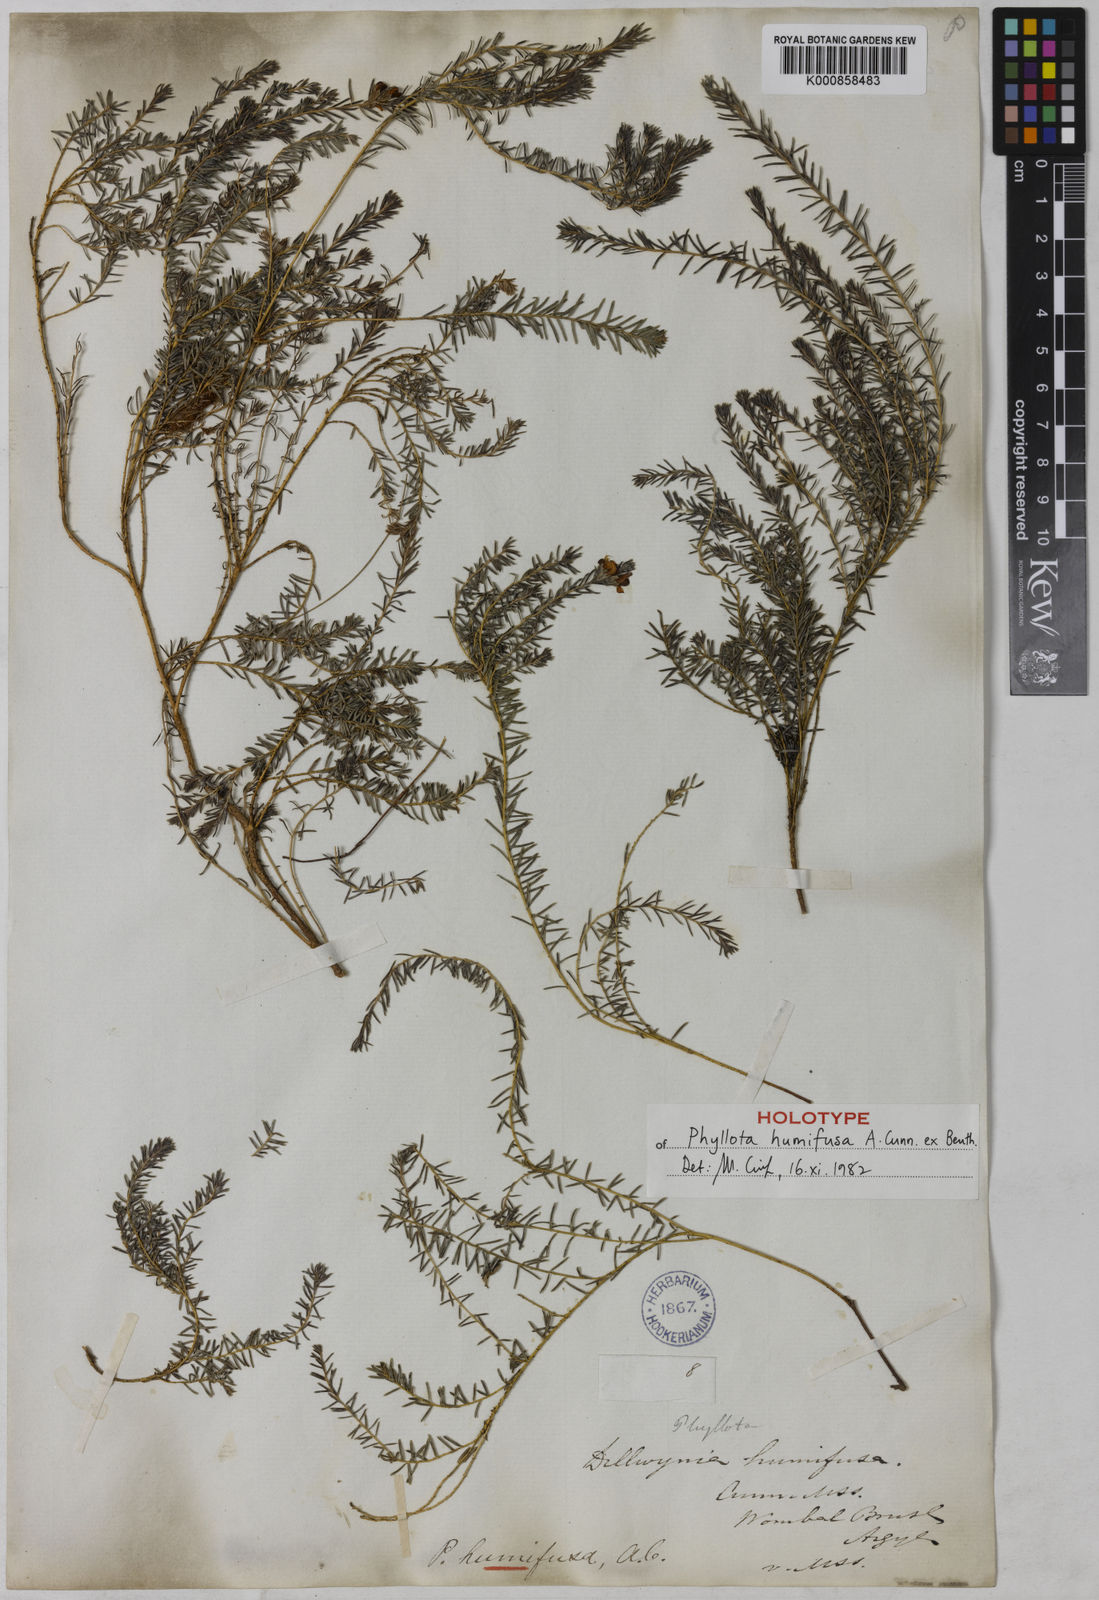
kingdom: Plantae
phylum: Tracheophyta
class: Magnoliopsida
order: Fabales
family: Fabaceae
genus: Phyllota
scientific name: Phyllota humifusa
